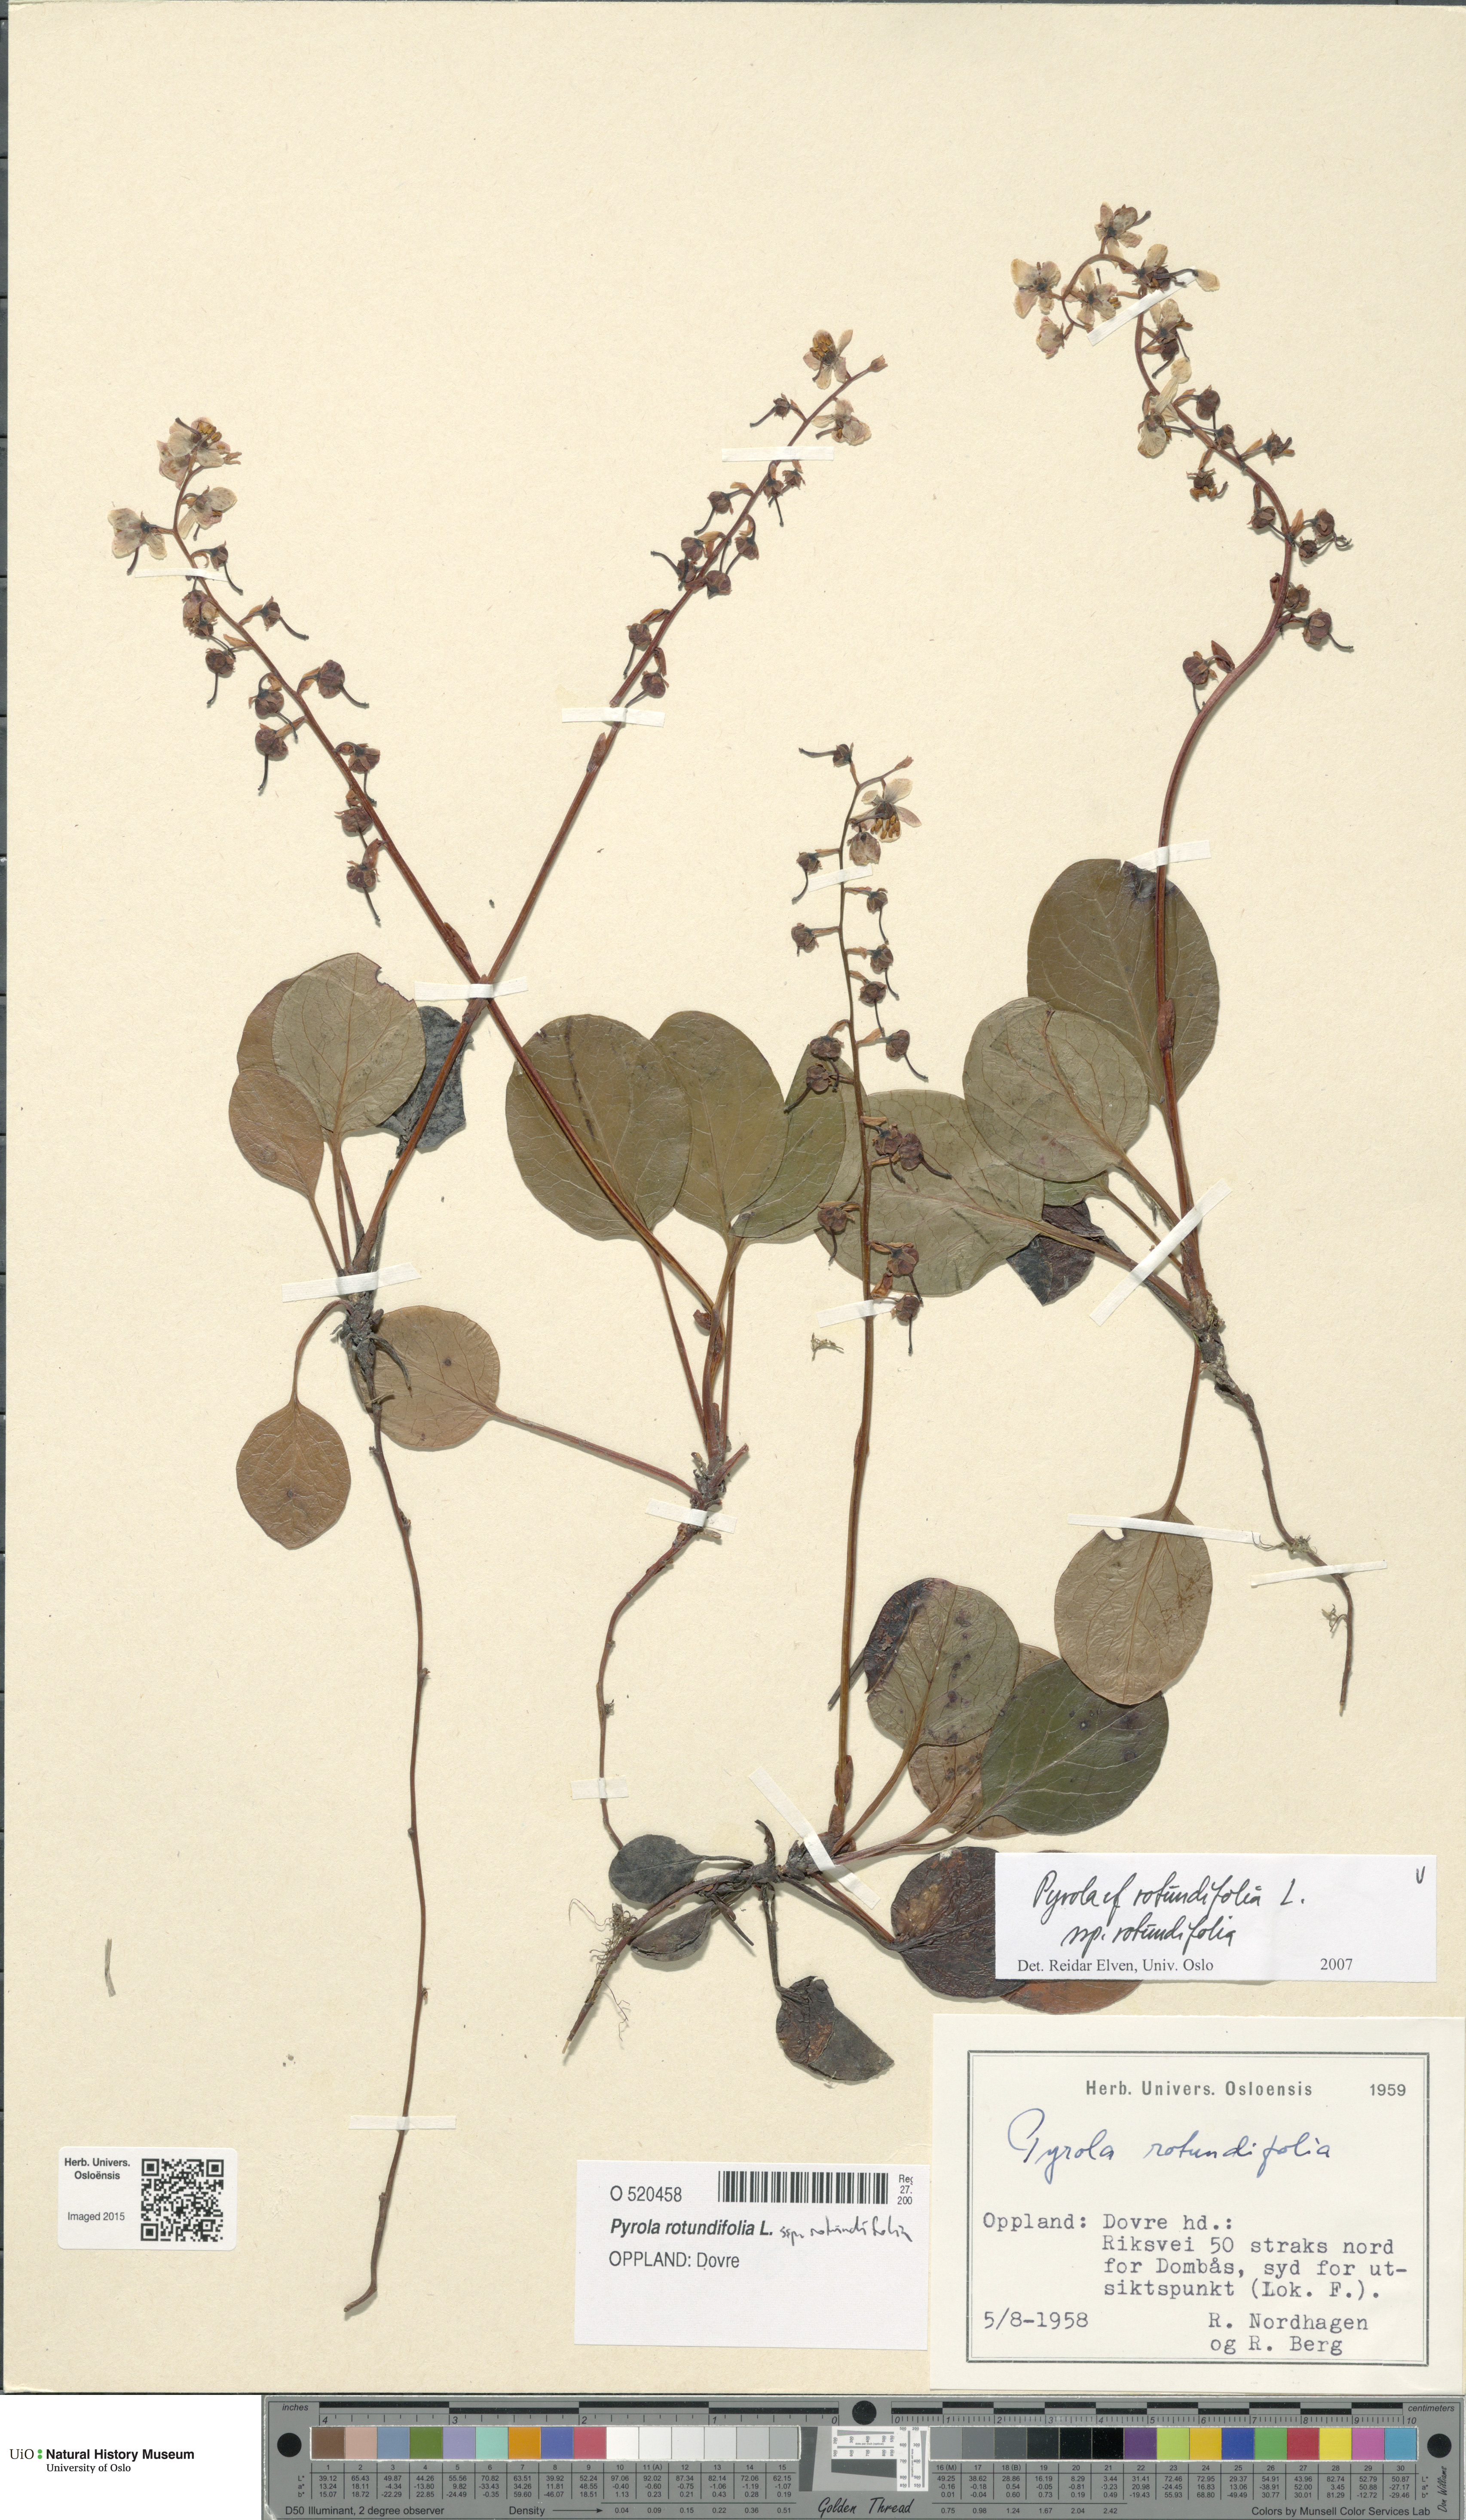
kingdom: Plantae
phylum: Tracheophyta
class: Magnoliopsida
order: Ericales
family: Ericaceae
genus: Pyrola
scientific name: Pyrola rotundifolia
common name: Round-leaved wintergreen
